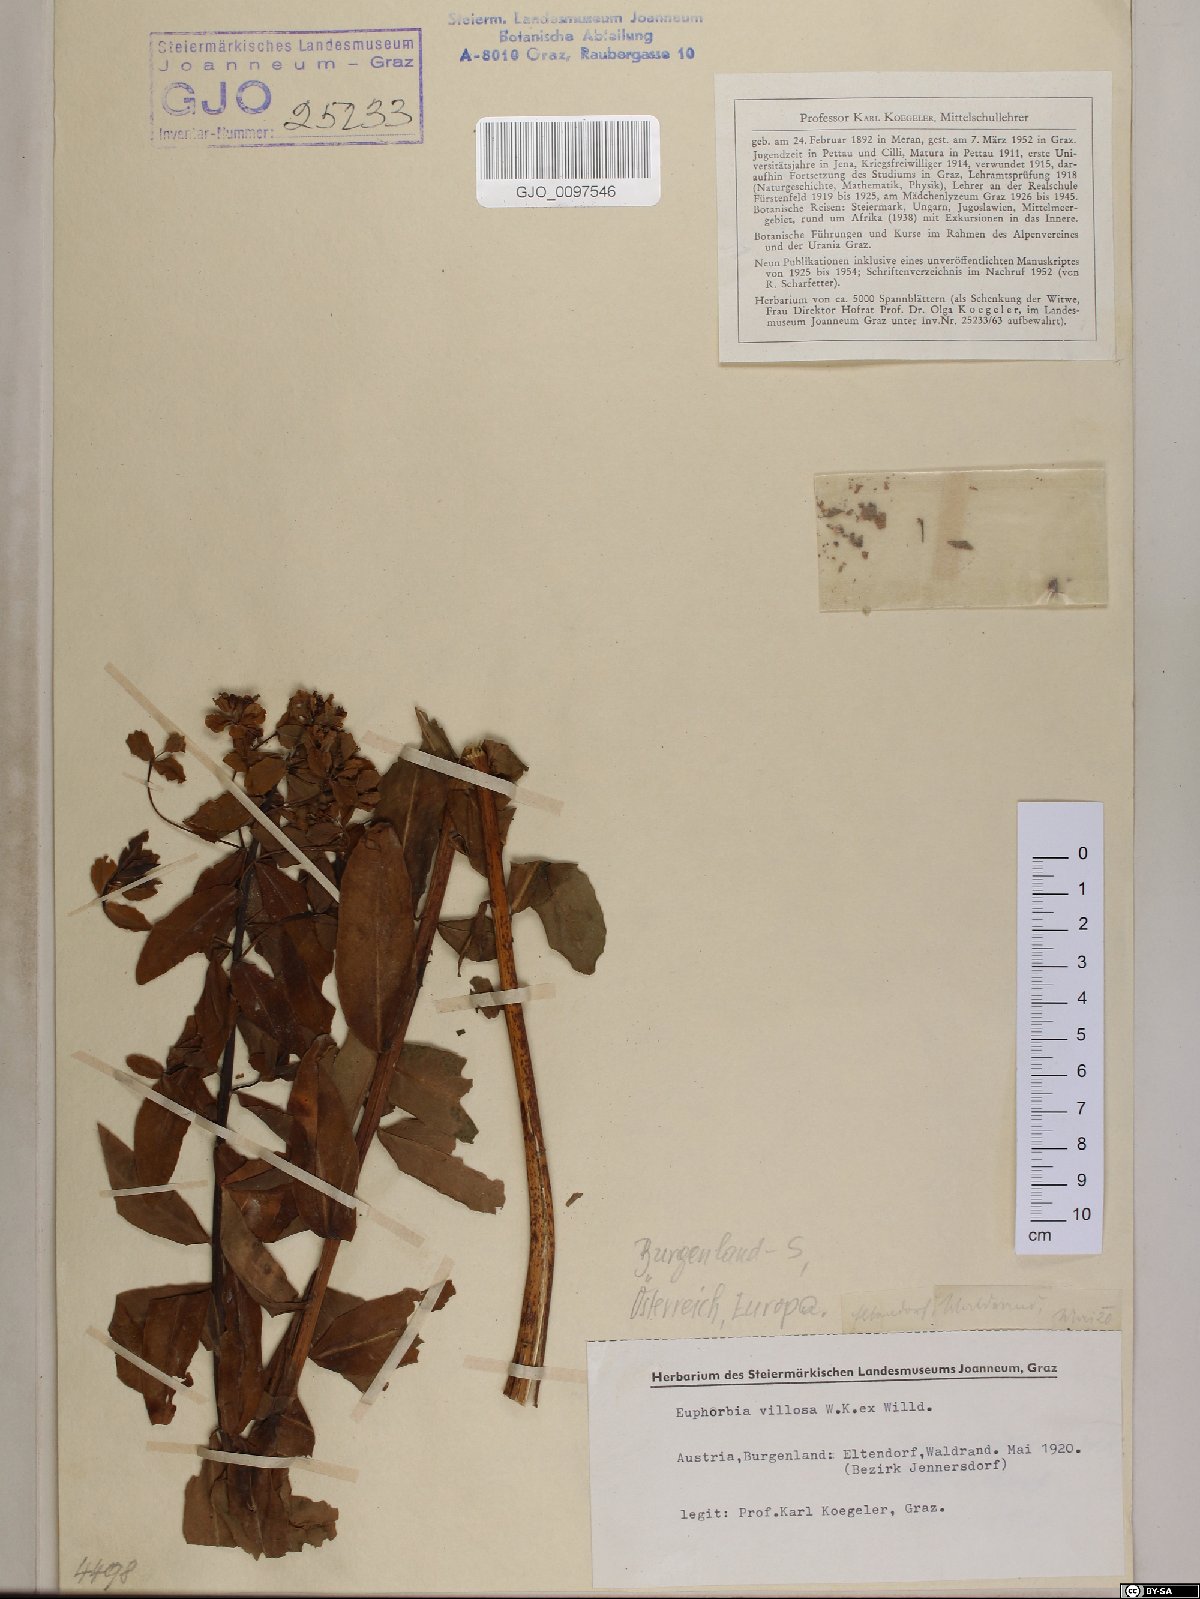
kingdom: Plantae
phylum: Tracheophyta
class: Magnoliopsida
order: Malpighiales
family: Euphorbiaceae
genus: Euphorbia
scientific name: Euphorbia illirica
